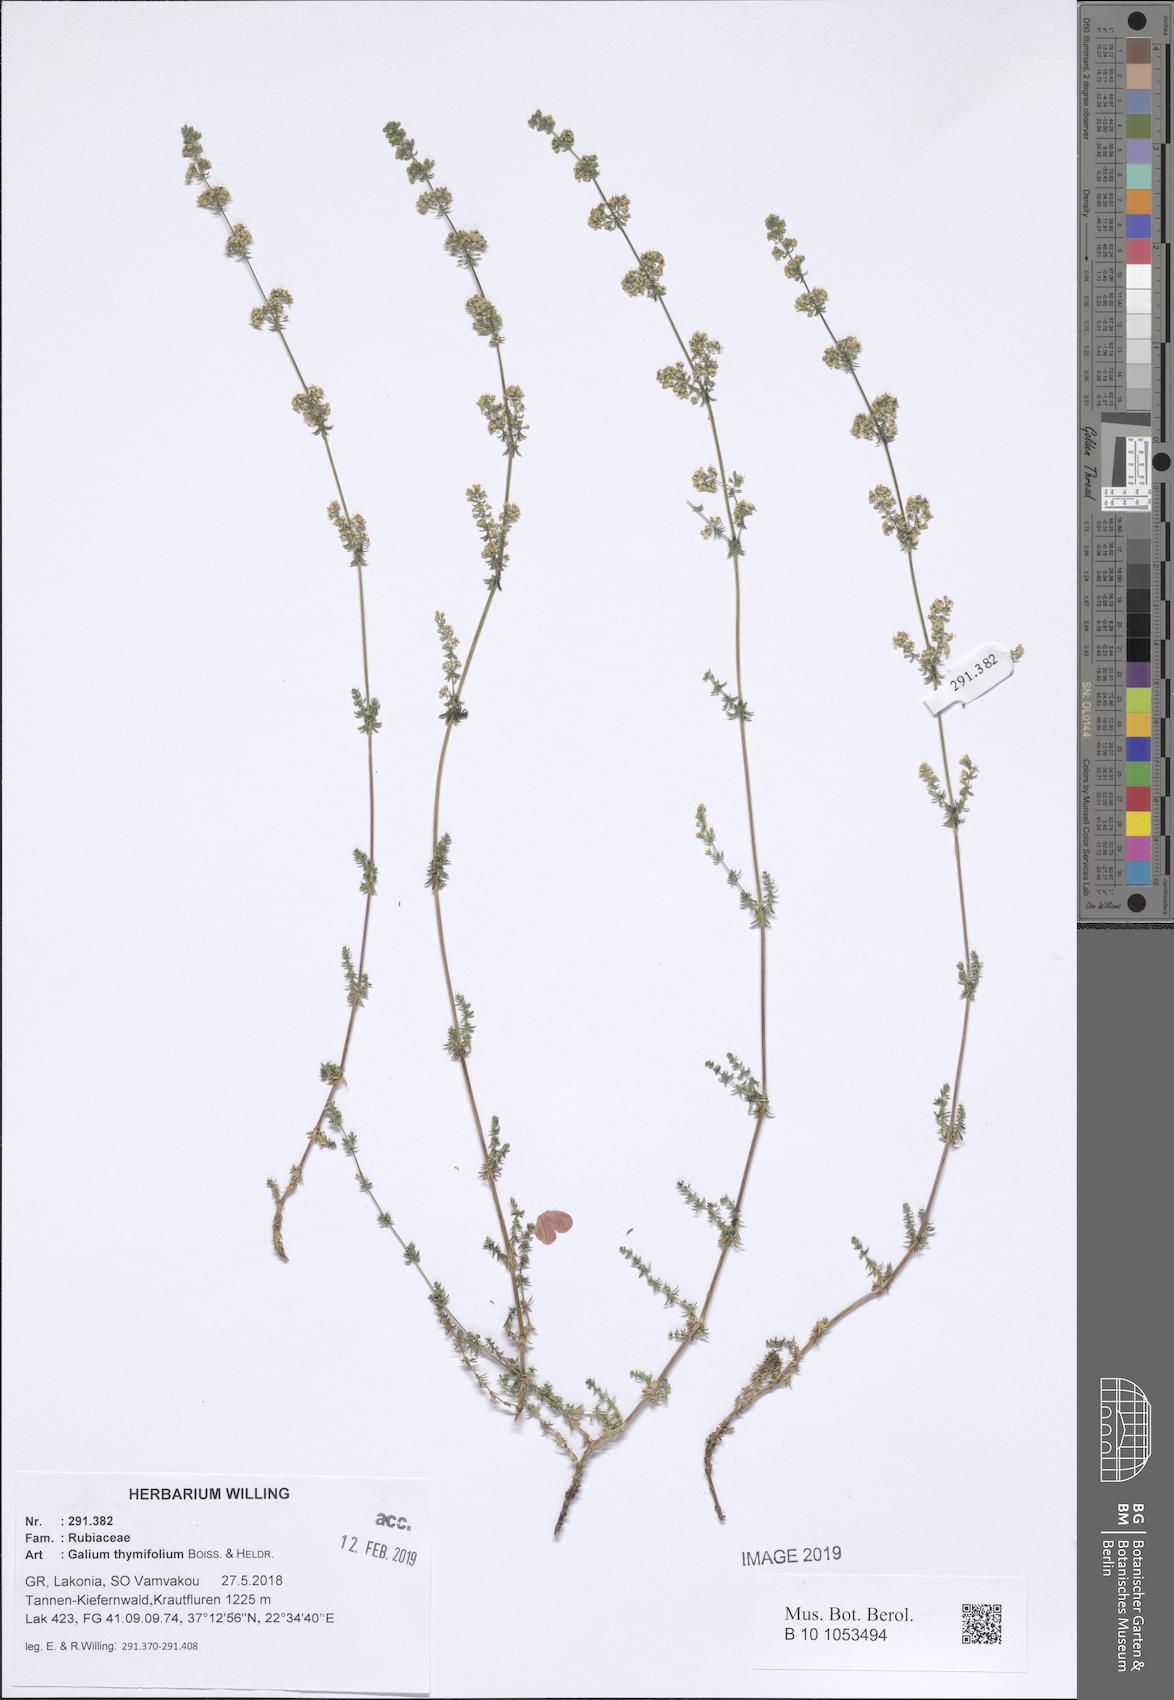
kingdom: Plantae
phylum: Tracheophyta
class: Magnoliopsida
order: Gentianales
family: Rubiaceae
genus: Galium
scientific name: Galium thymifolium
